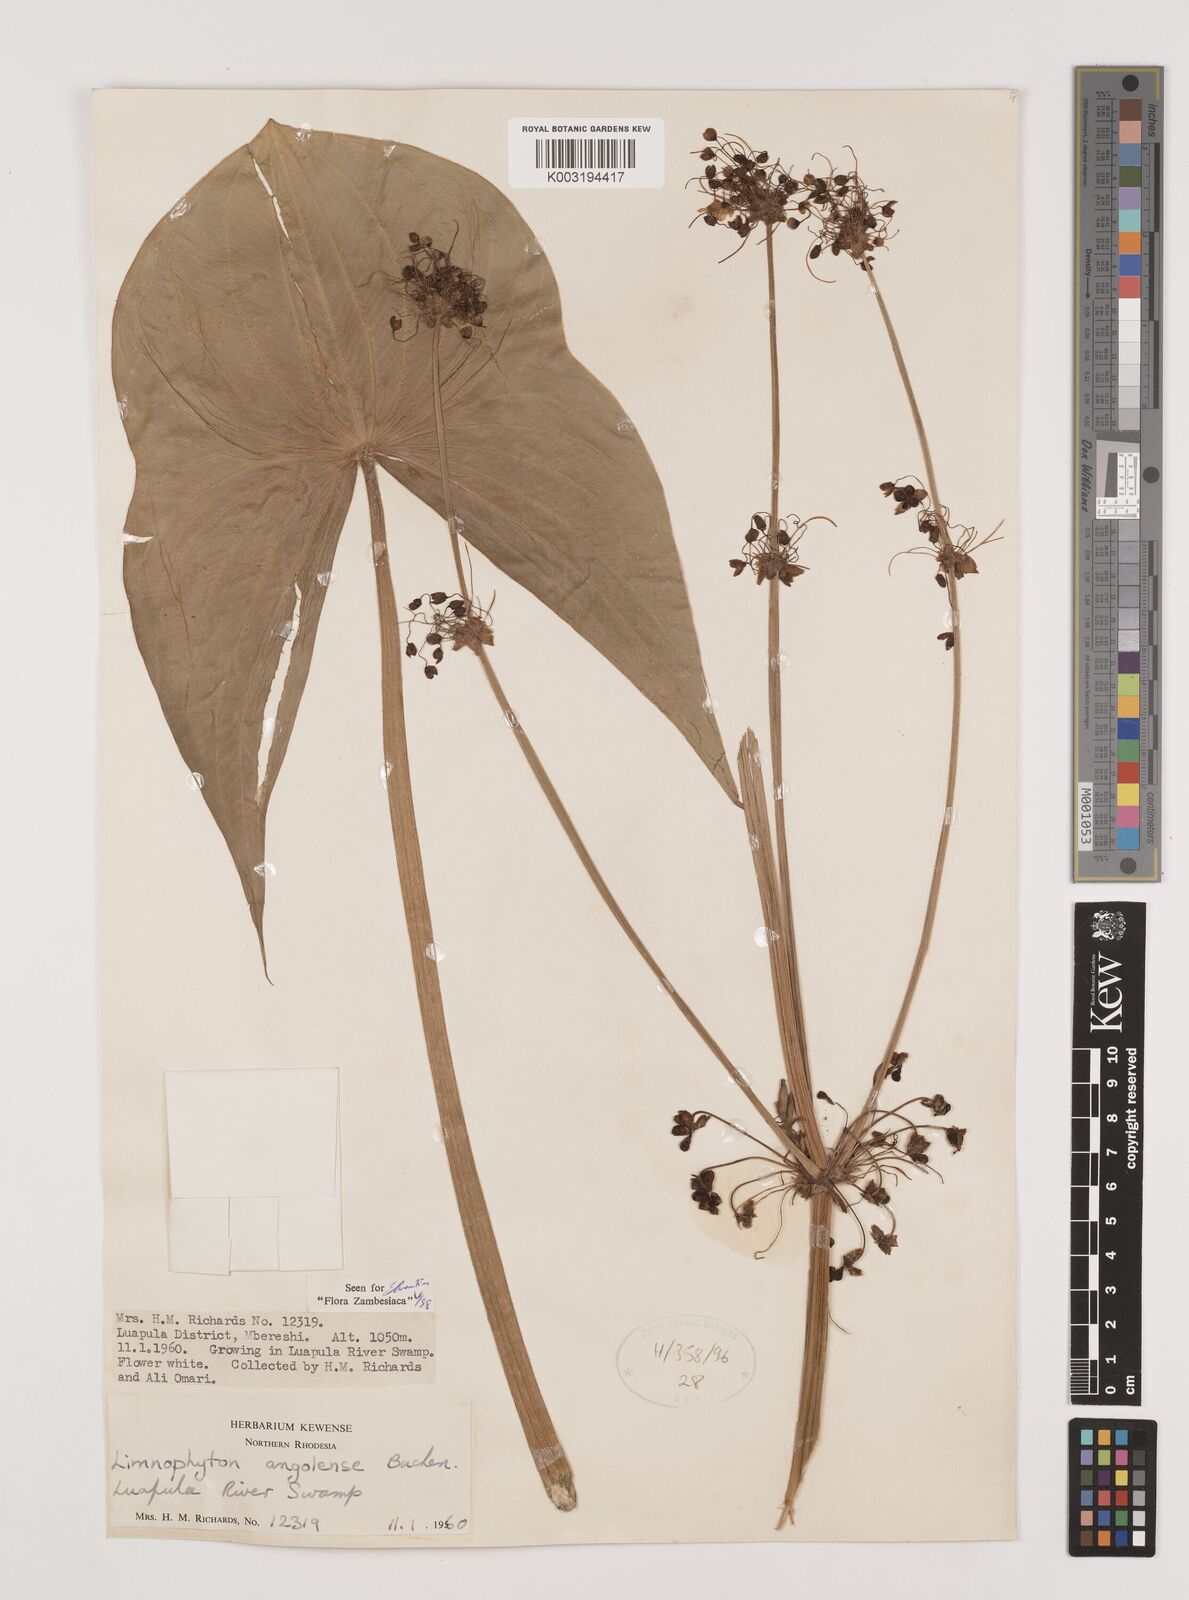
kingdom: Plantae
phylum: Tracheophyta
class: Liliopsida
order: Alismatales
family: Alismataceae
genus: Limnophyton
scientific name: Limnophyton angolense
